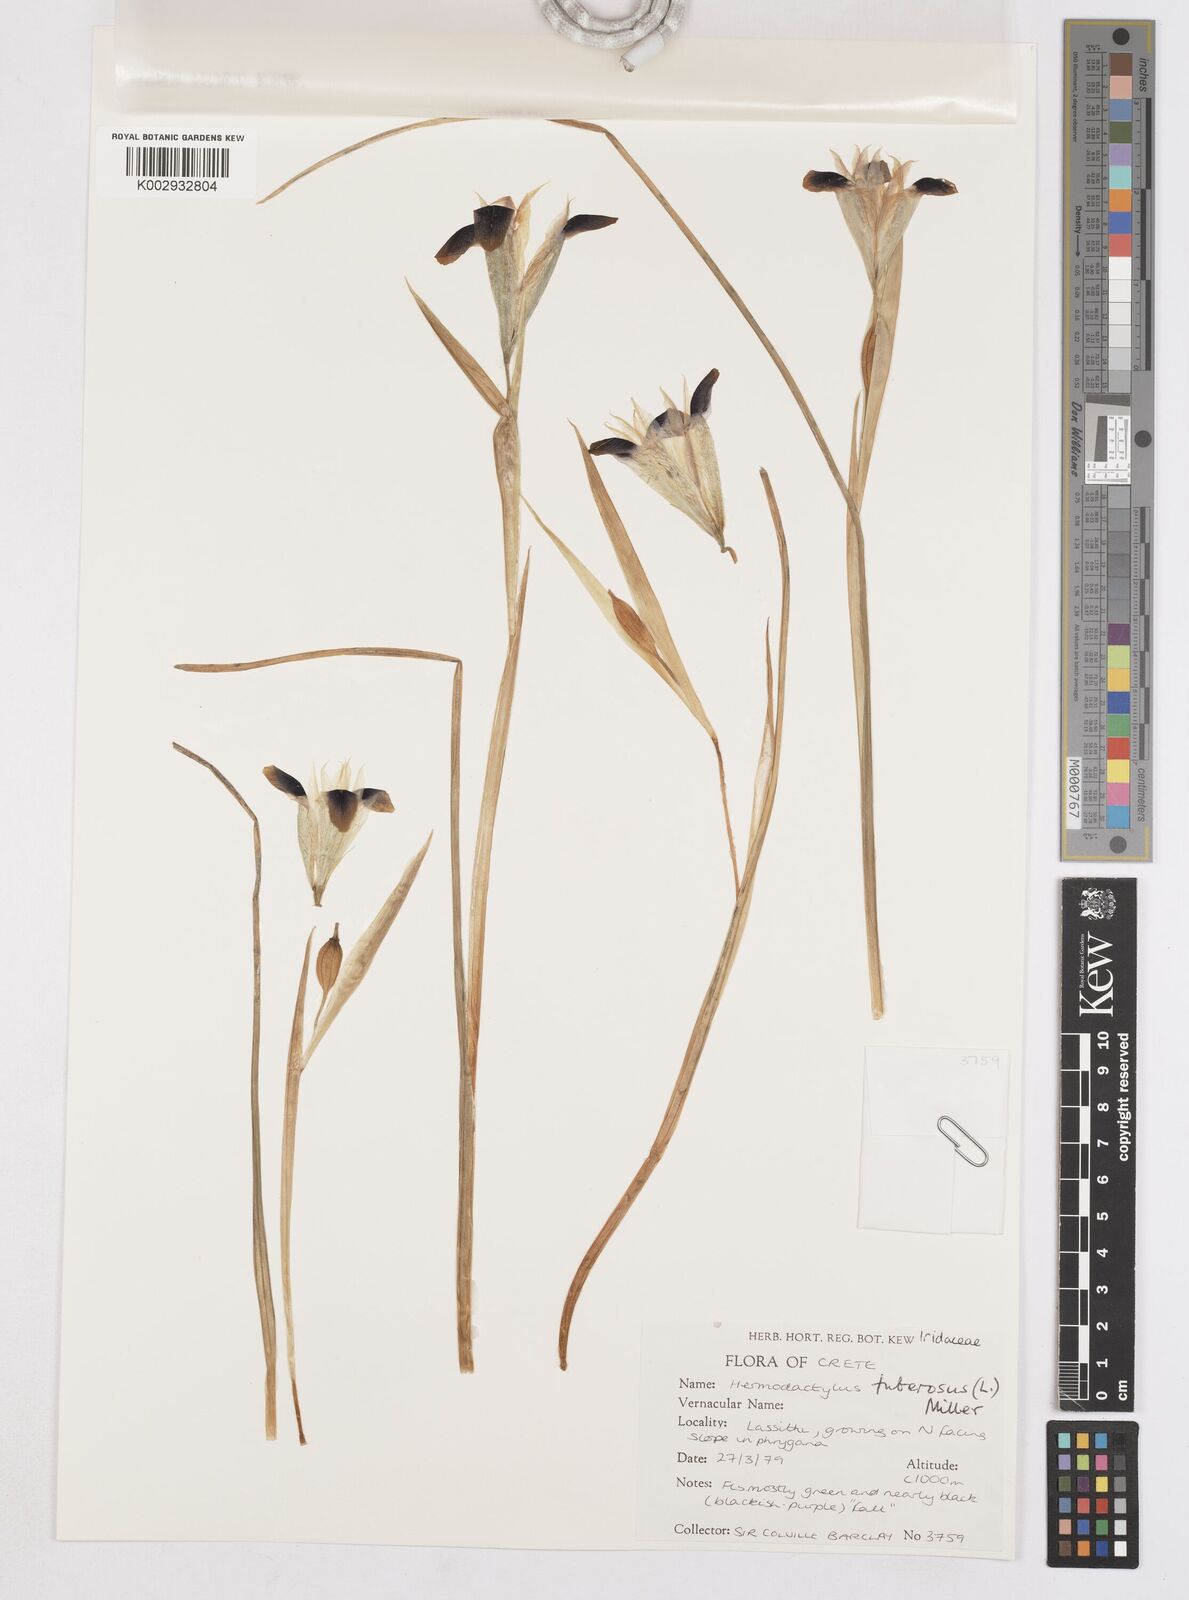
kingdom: Plantae
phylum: Tracheophyta
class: Liliopsida
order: Asparagales
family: Iridaceae
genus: Iris
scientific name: Iris
